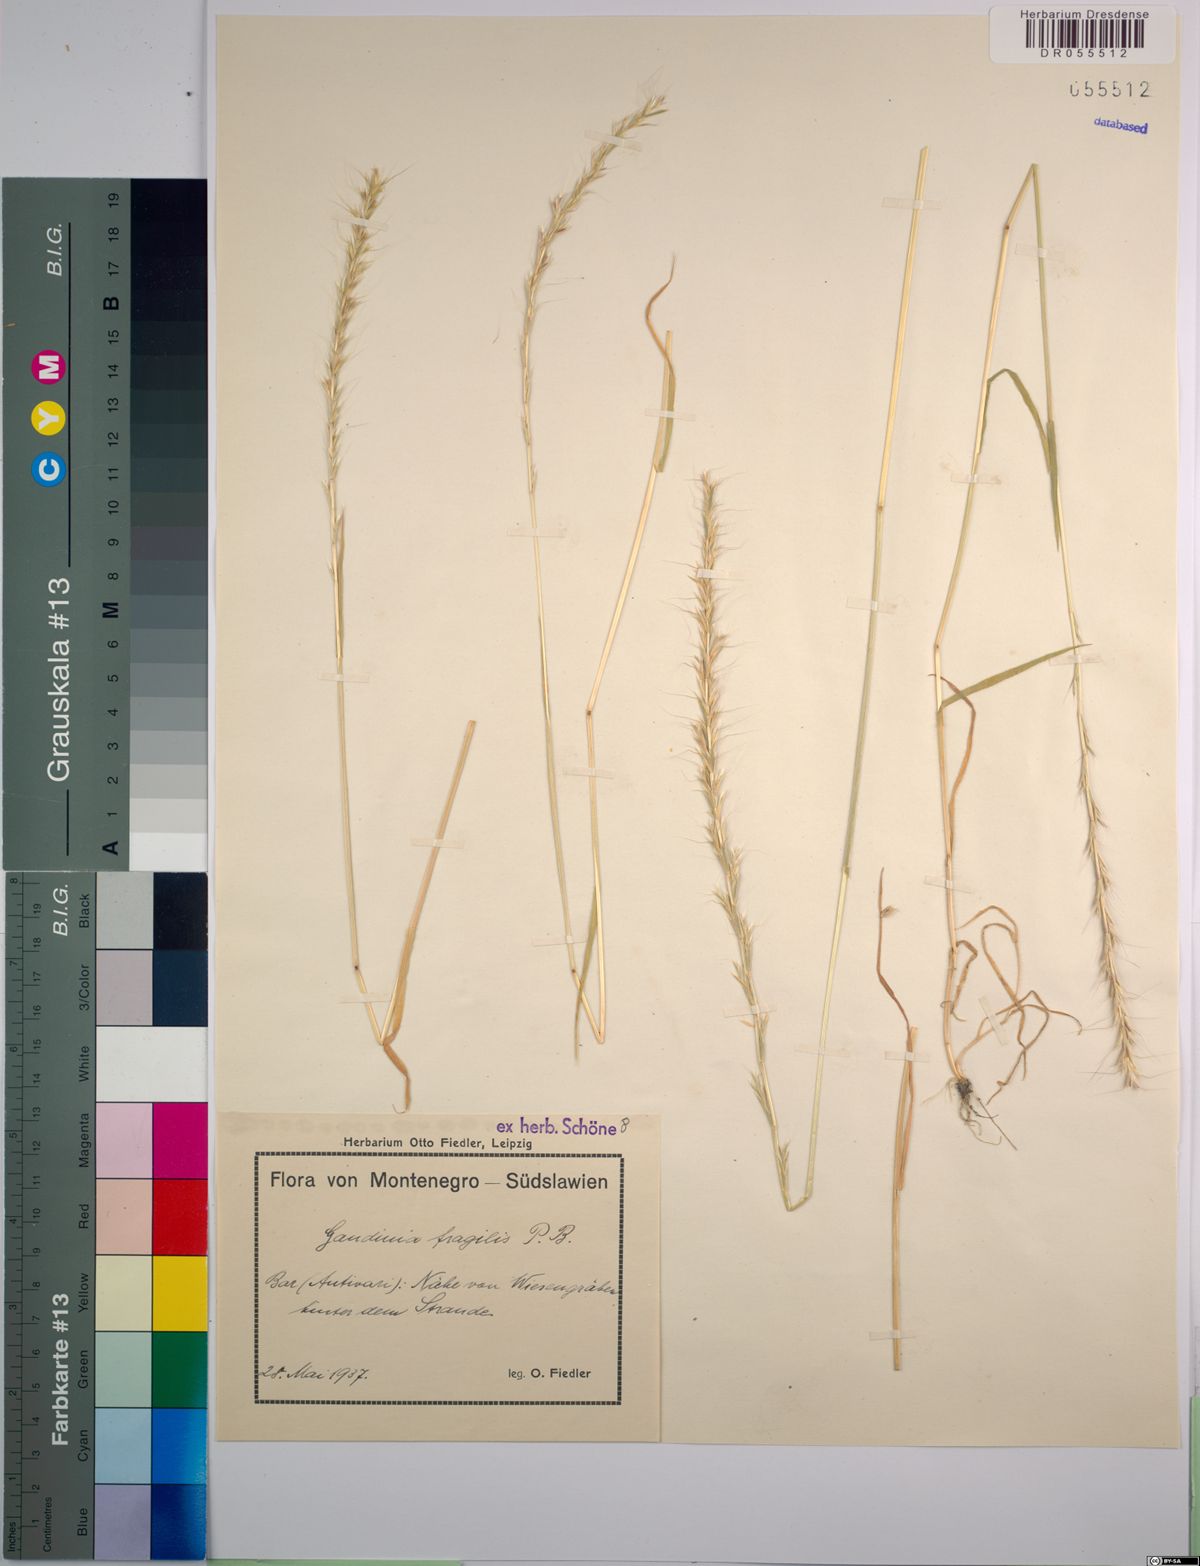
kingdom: Plantae
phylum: Tracheophyta
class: Liliopsida
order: Poales
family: Poaceae
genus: Gaudinia
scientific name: Gaudinia fragilis
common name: French oat-grass
